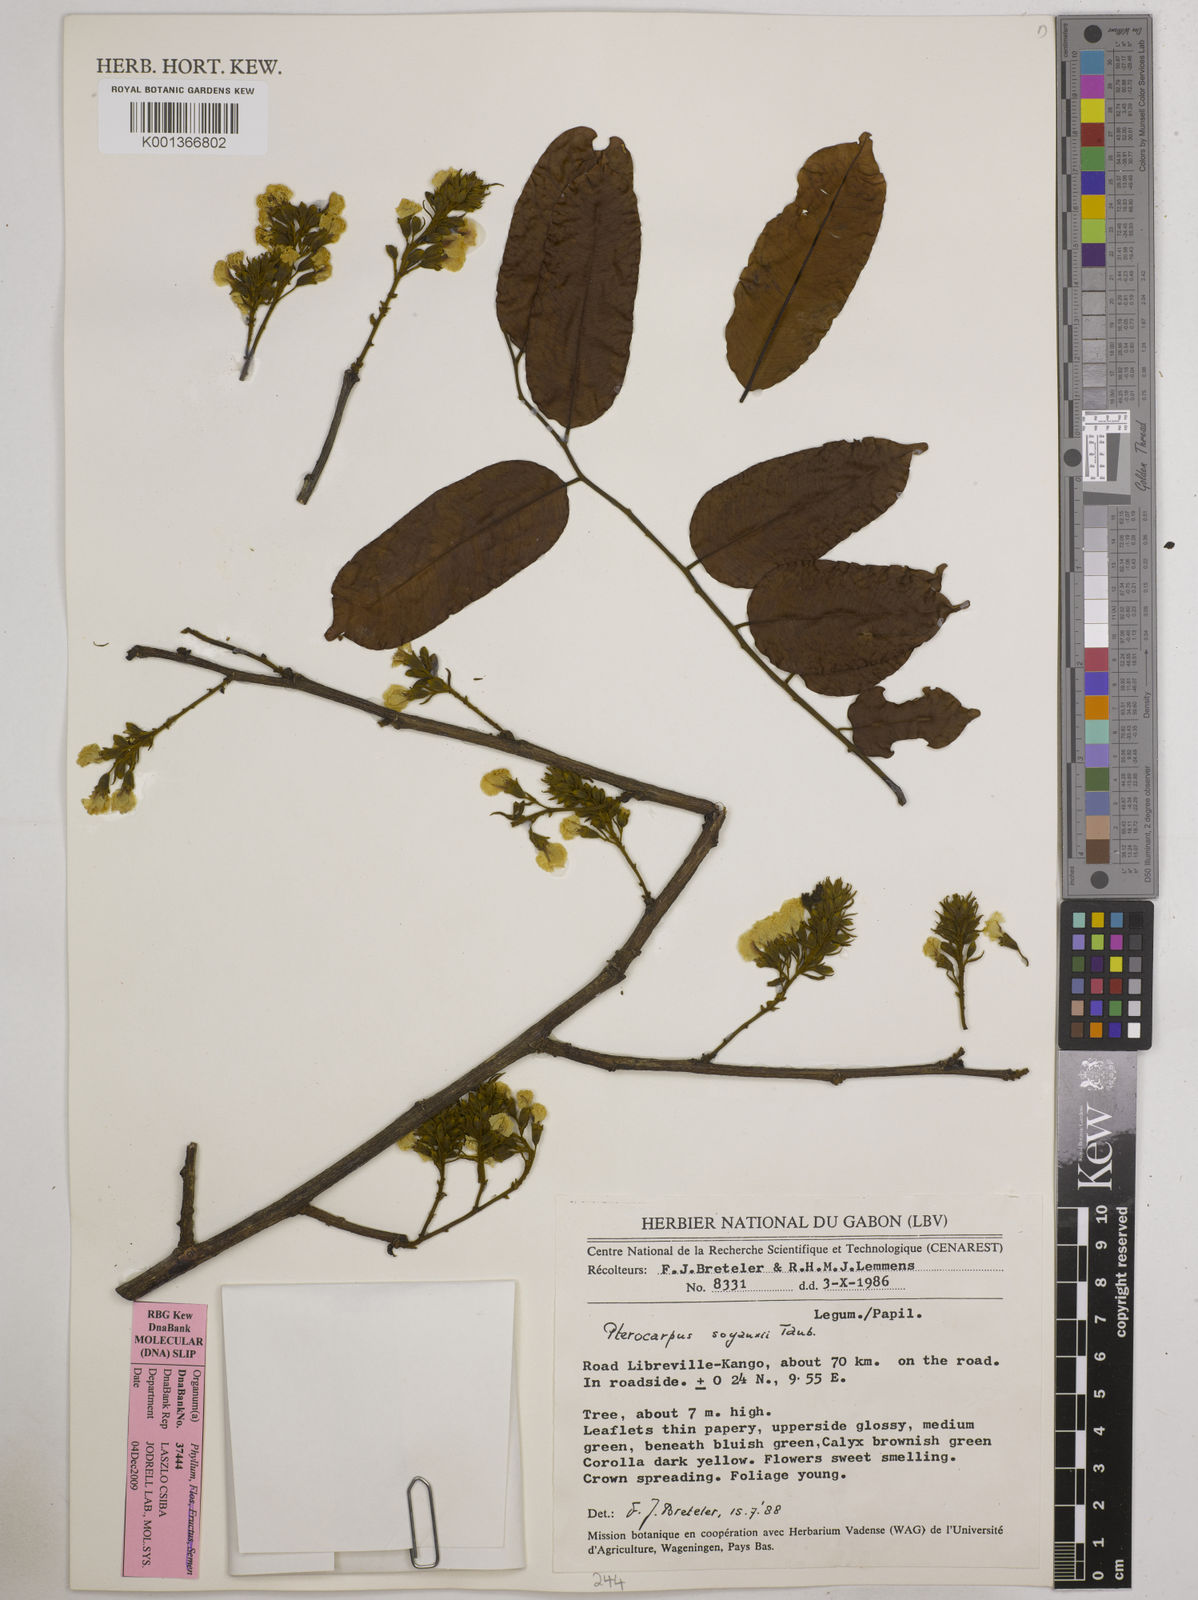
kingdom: Plantae
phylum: Tracheophyta
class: Magnoliopsida
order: Fabales
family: Fabaceae
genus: Pterocarpus
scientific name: Pterocarpus soyauxii
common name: African coralwood
